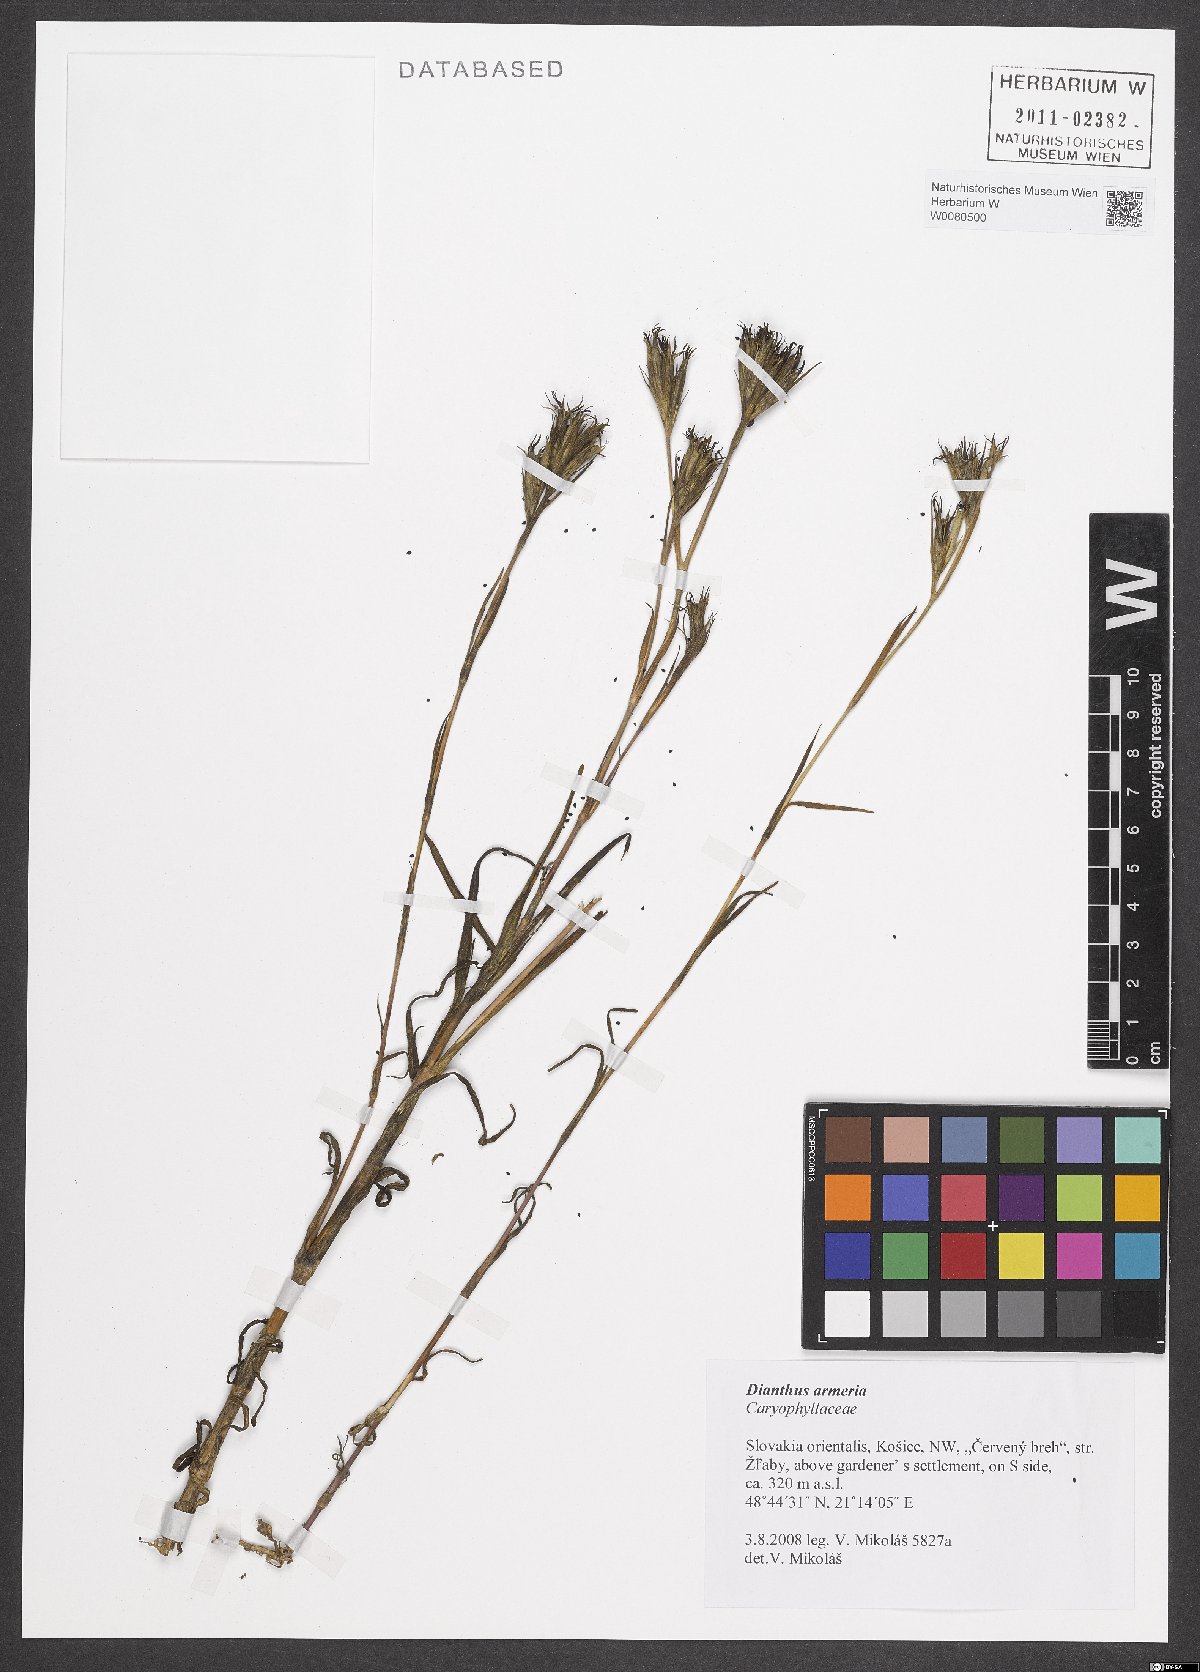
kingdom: Plantae
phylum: Tracheophyta
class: Magnoliopsida
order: Caryophyllales
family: Caryophyllaceae
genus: Dianthus
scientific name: Dianthus armeria
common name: Deptford pink
